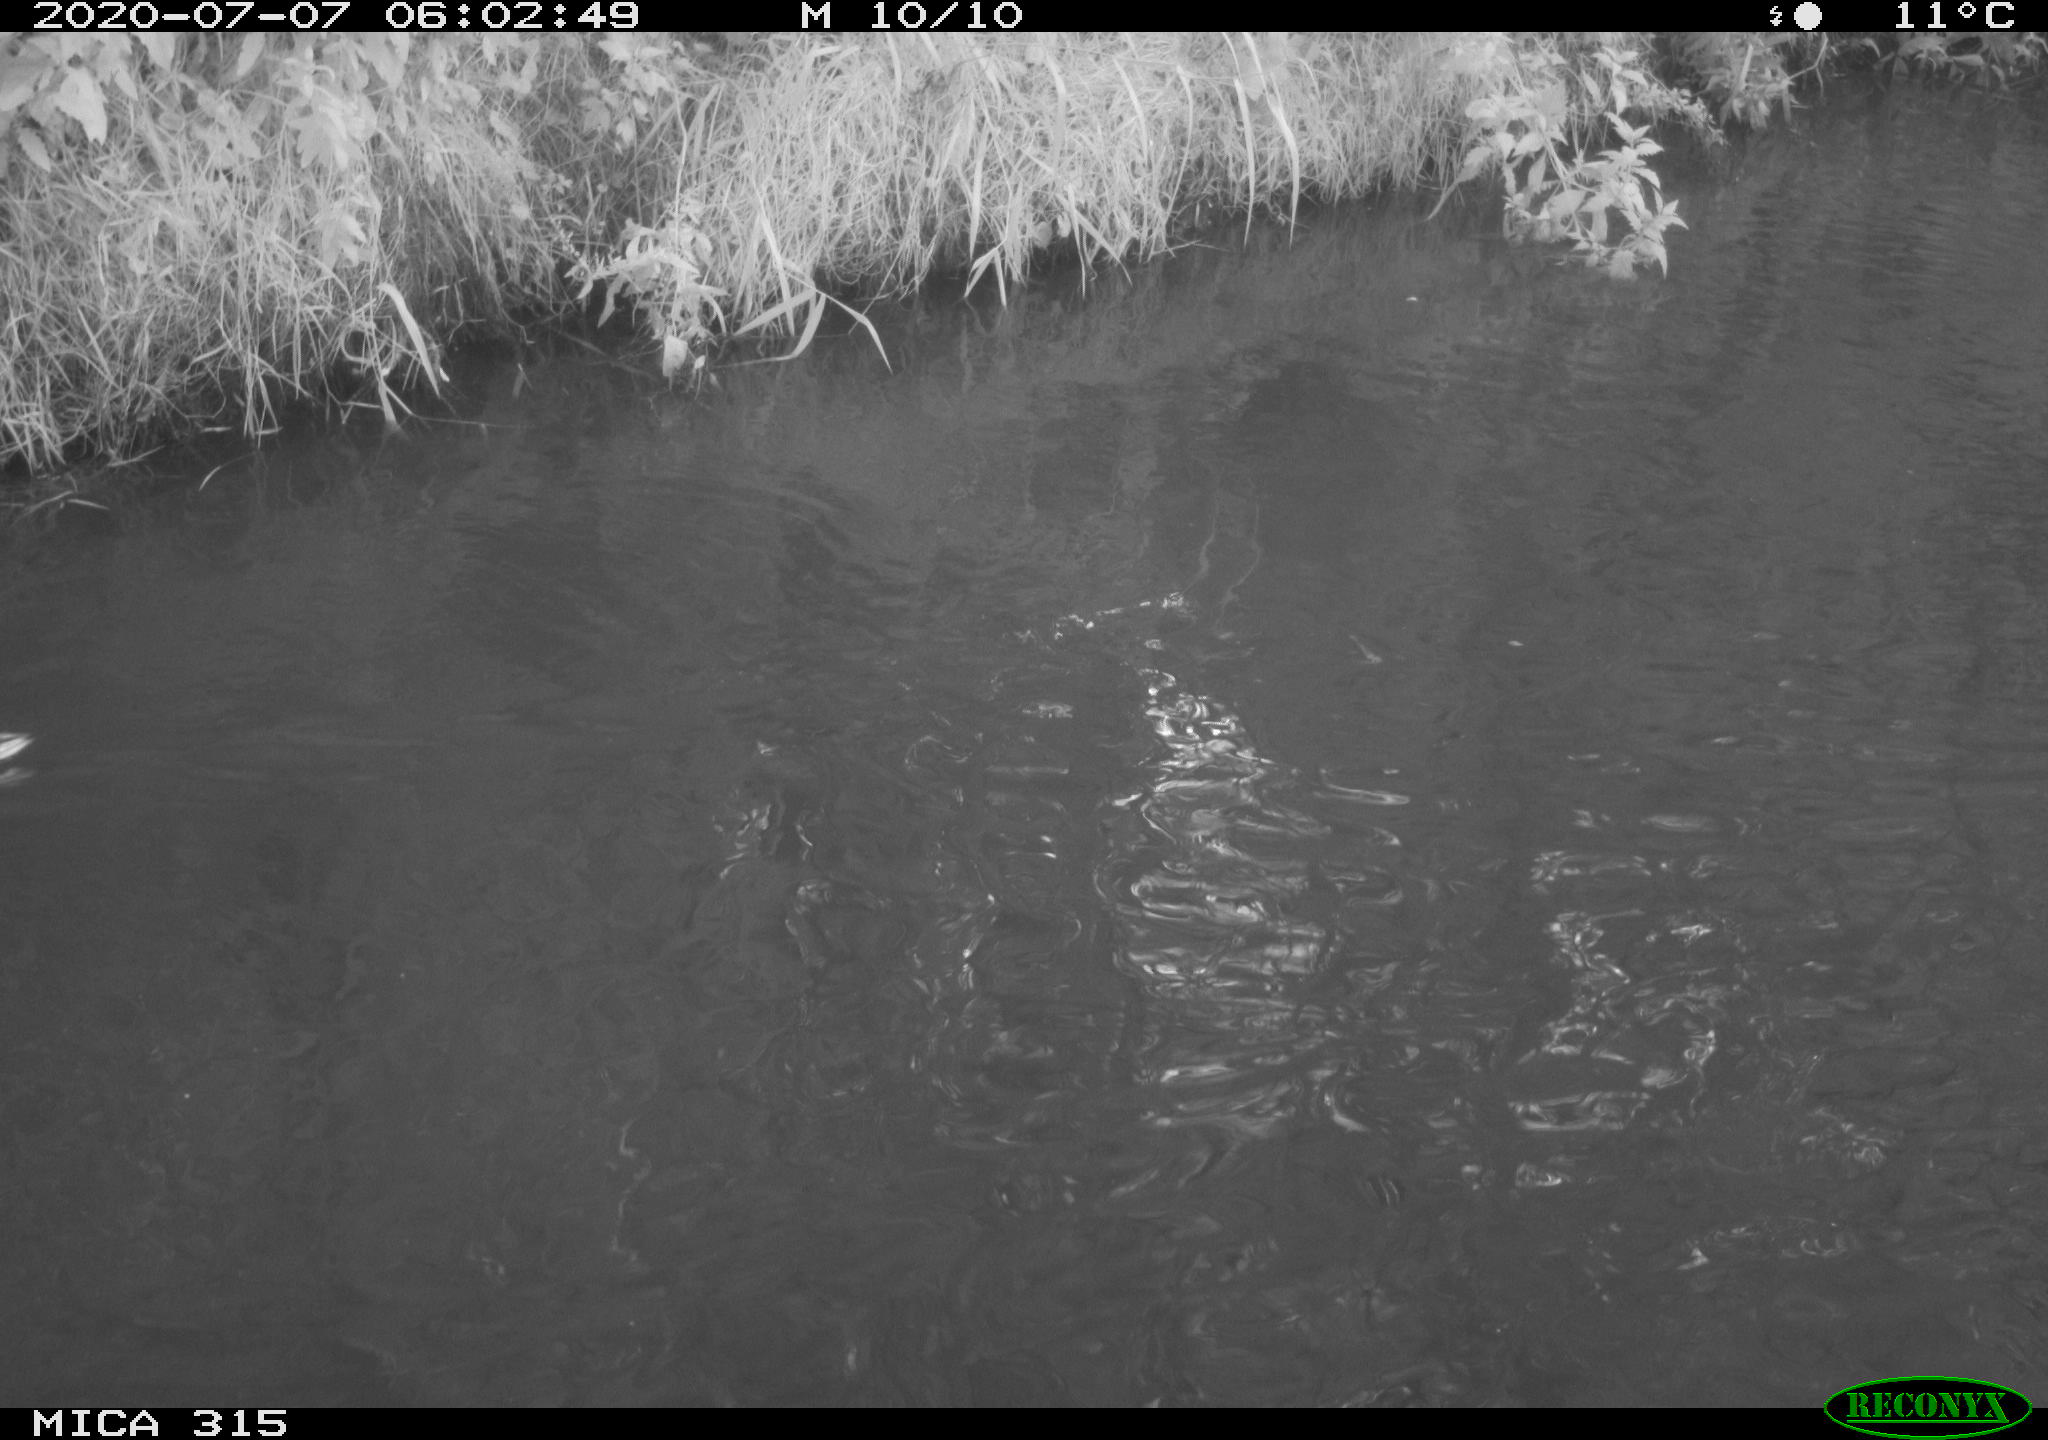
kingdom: Animalia
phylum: Chordata
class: Aves
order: Anseriformes
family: Anatidae
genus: Anas
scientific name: Anas platyrhynchos
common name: Mallard
